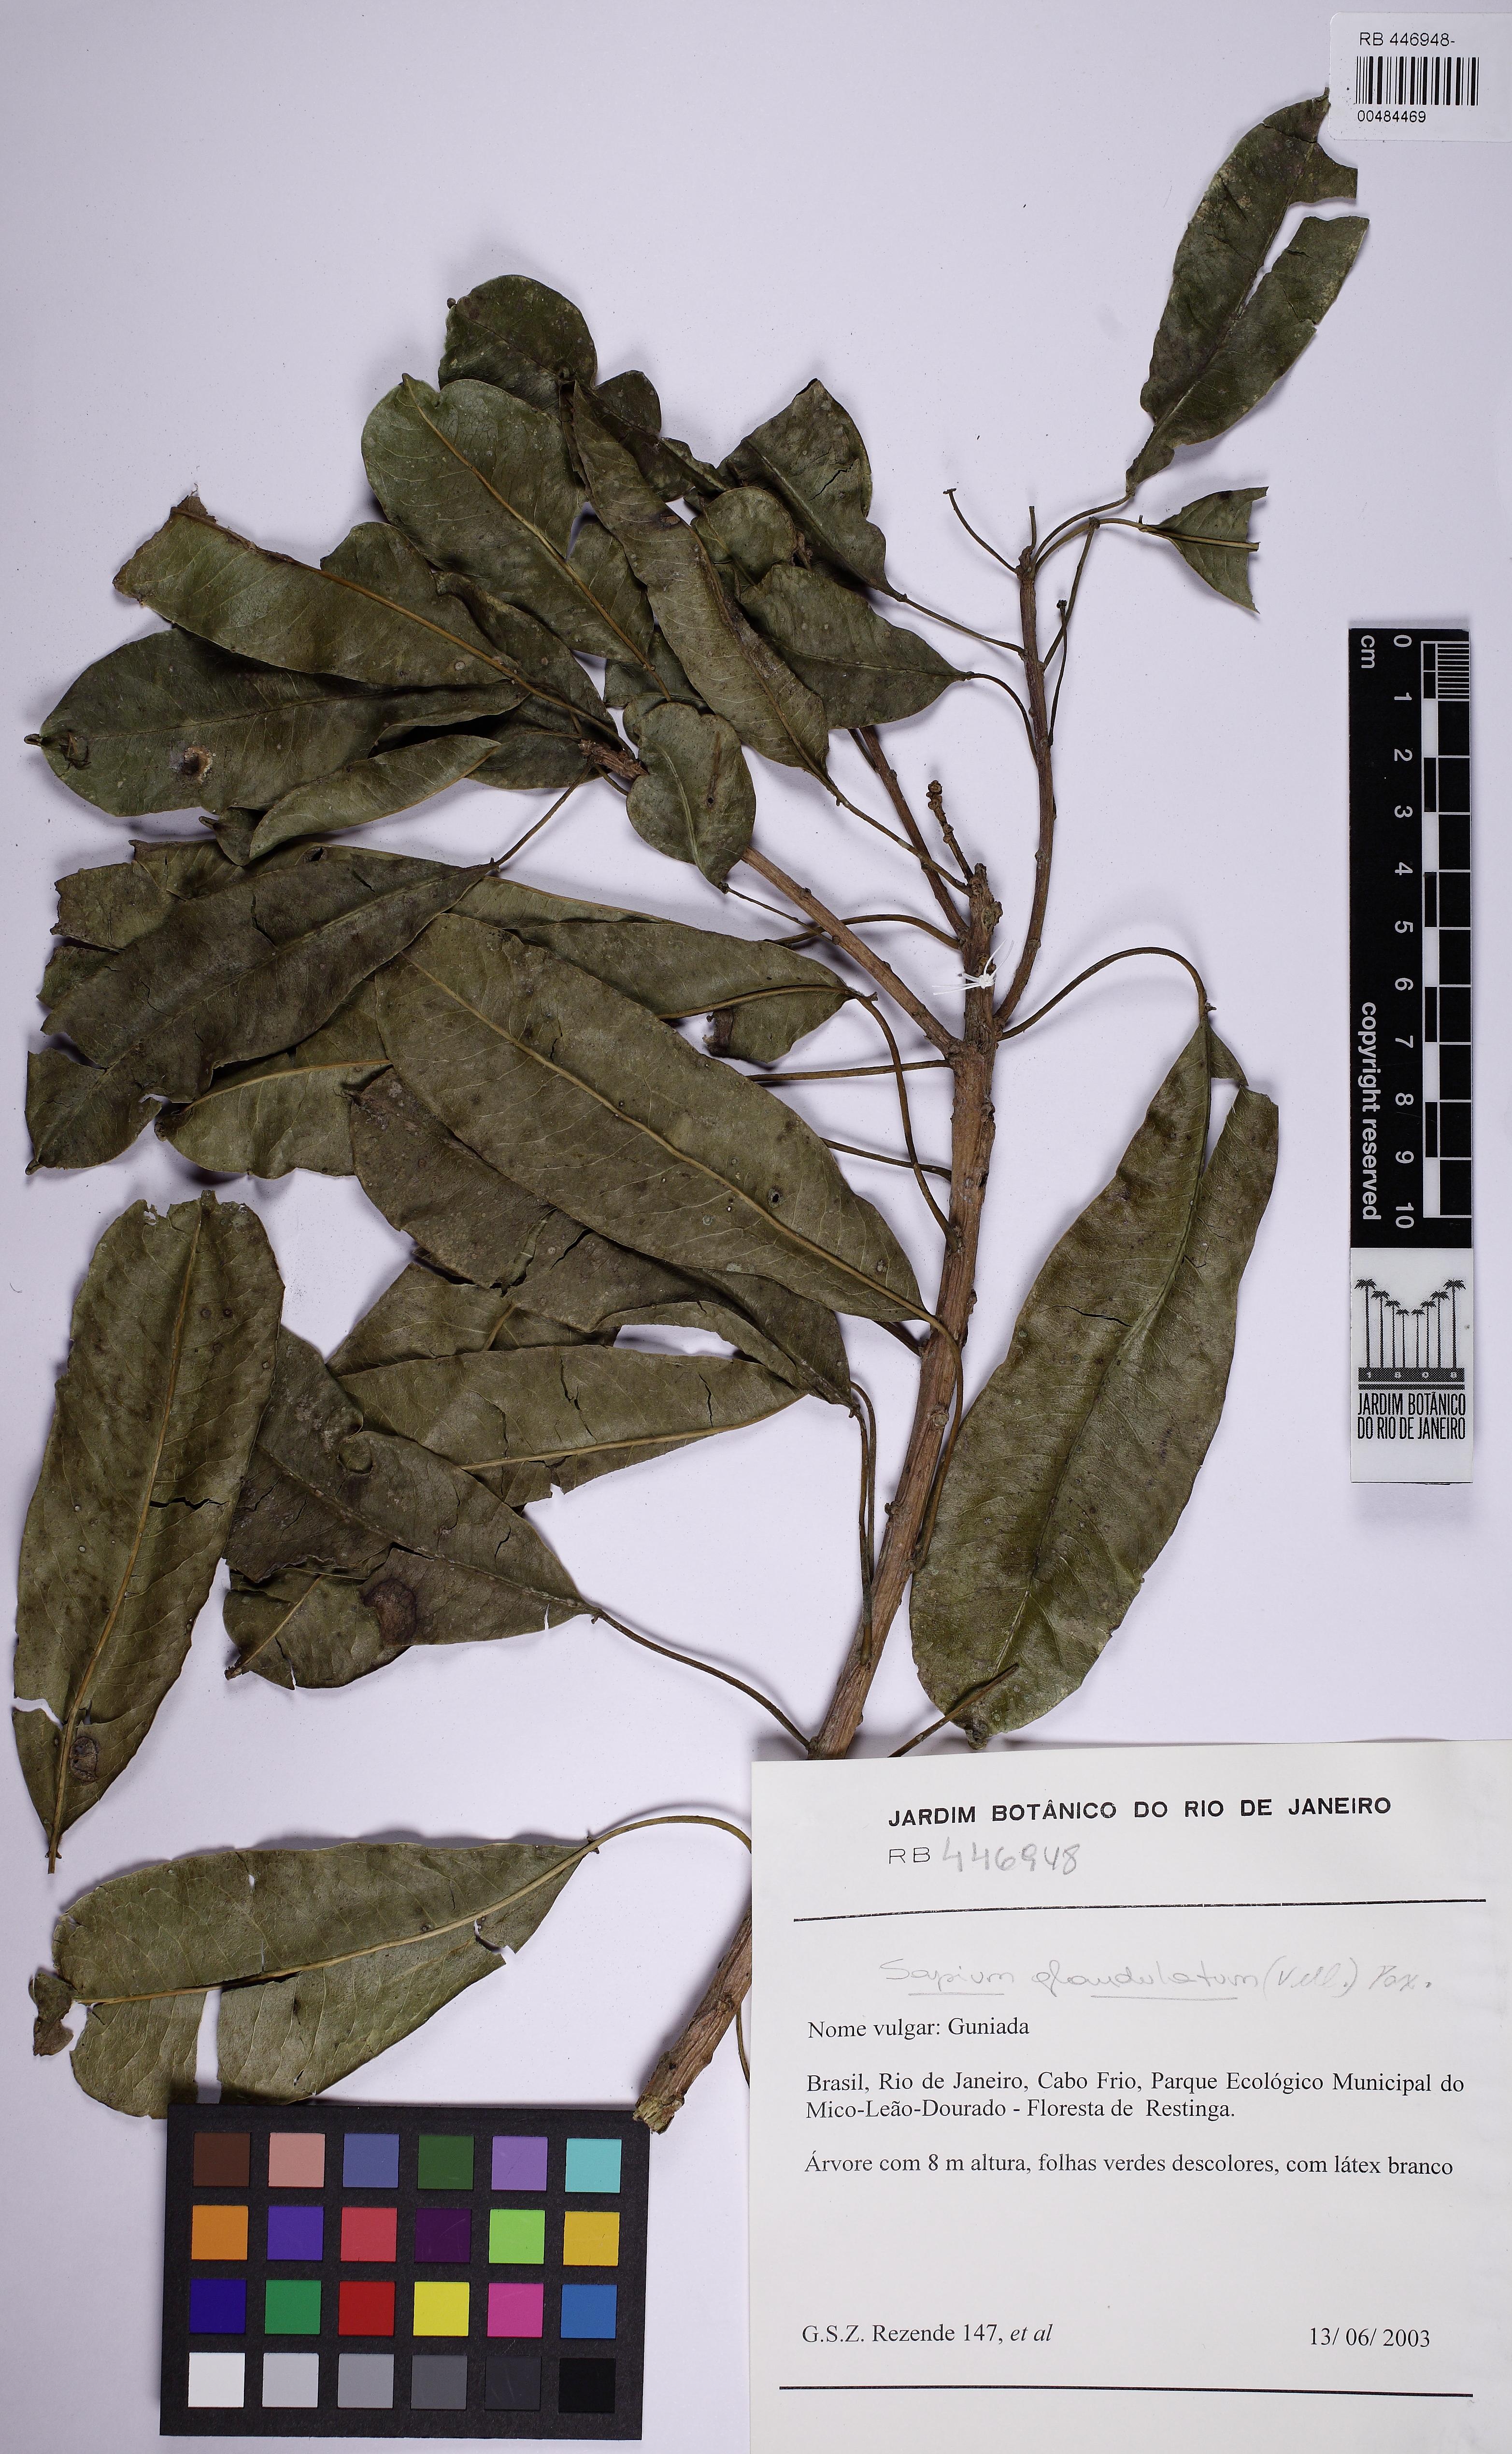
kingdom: Plantae
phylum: Tracheophyta
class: Magnoliopsida
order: Malpighiales
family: Euphorbiaceae
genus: Sapium
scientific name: Sapium glandulosum
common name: Milktree
